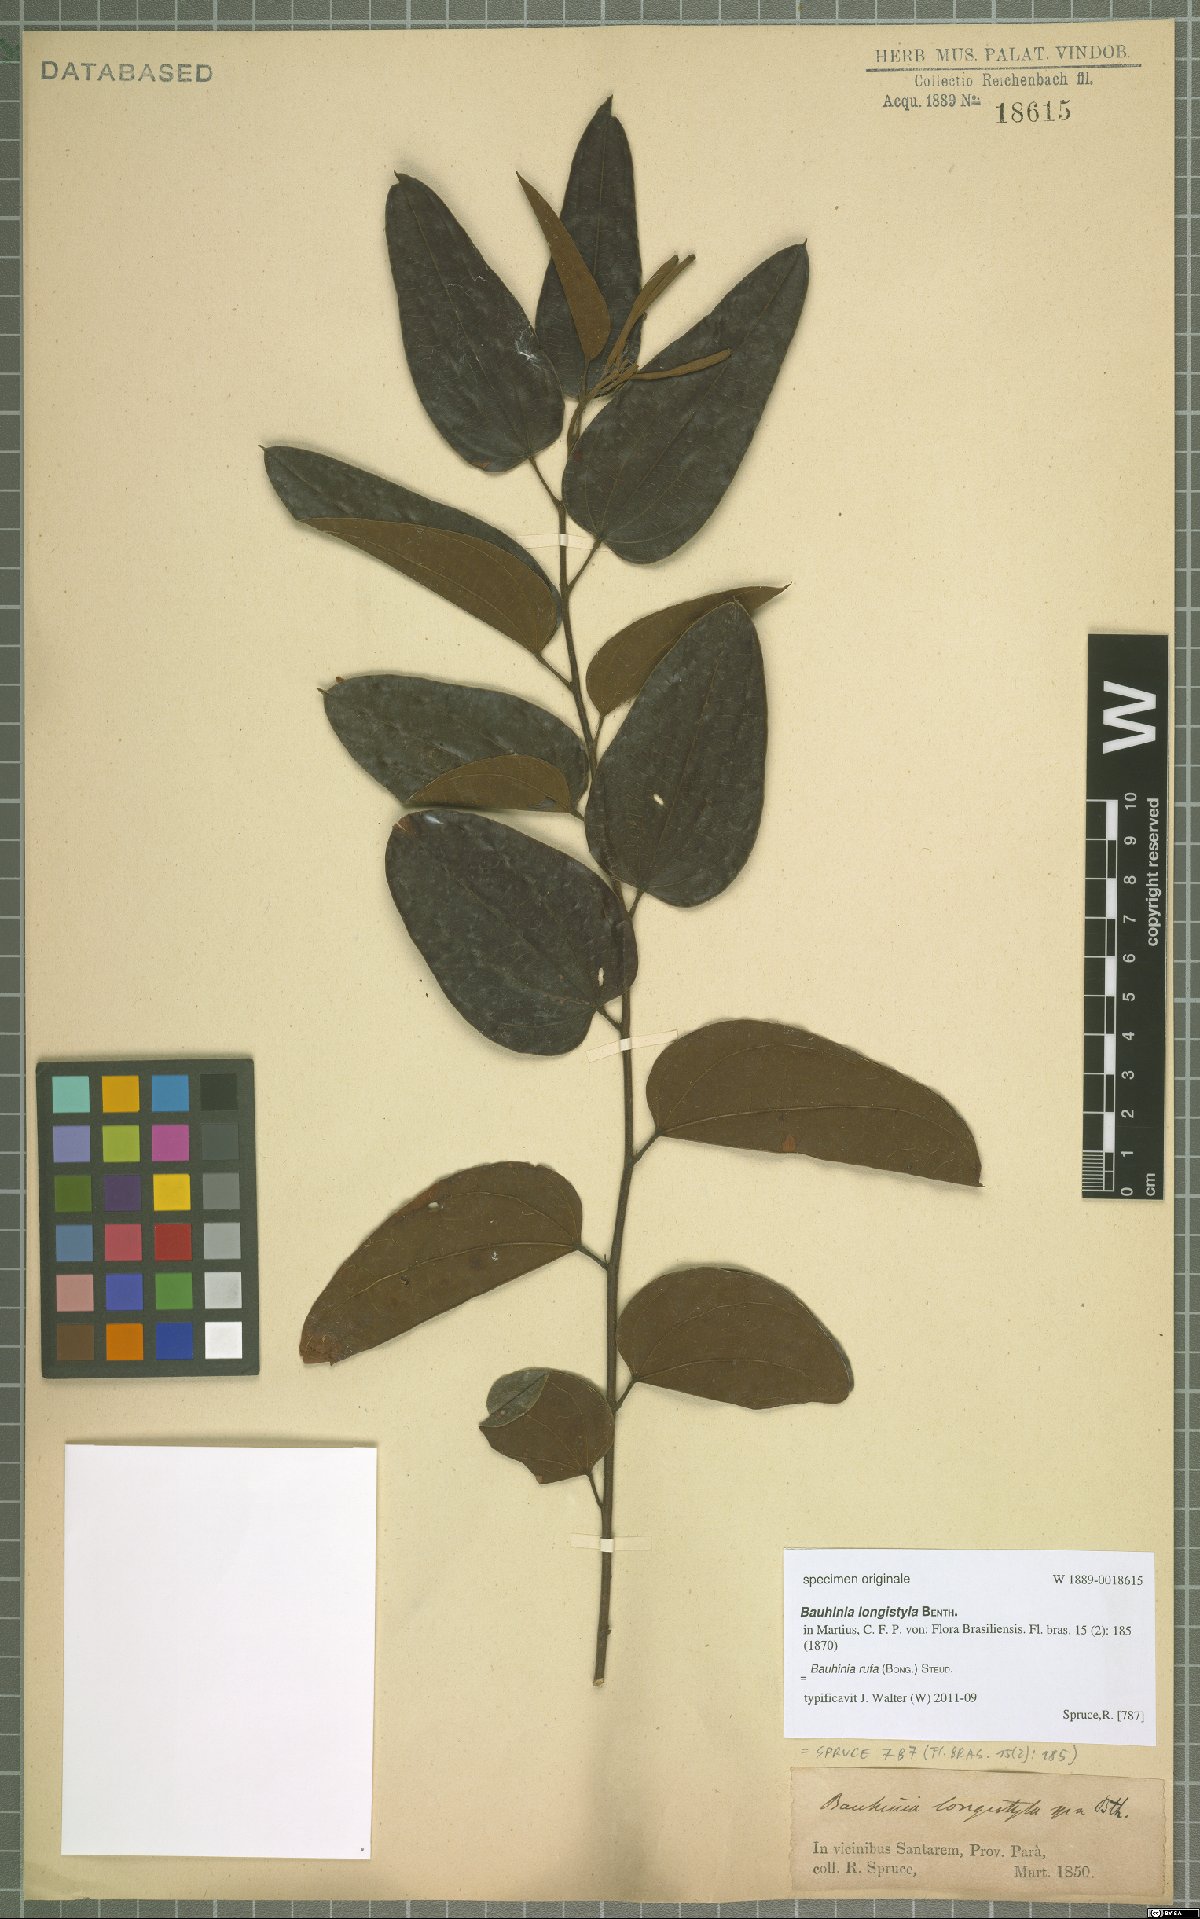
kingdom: Plantae
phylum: Tracheophyta
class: Magnoliopsida
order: Fabales
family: Fabaceae
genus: Bauhinia
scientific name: Bauhinia rufa
